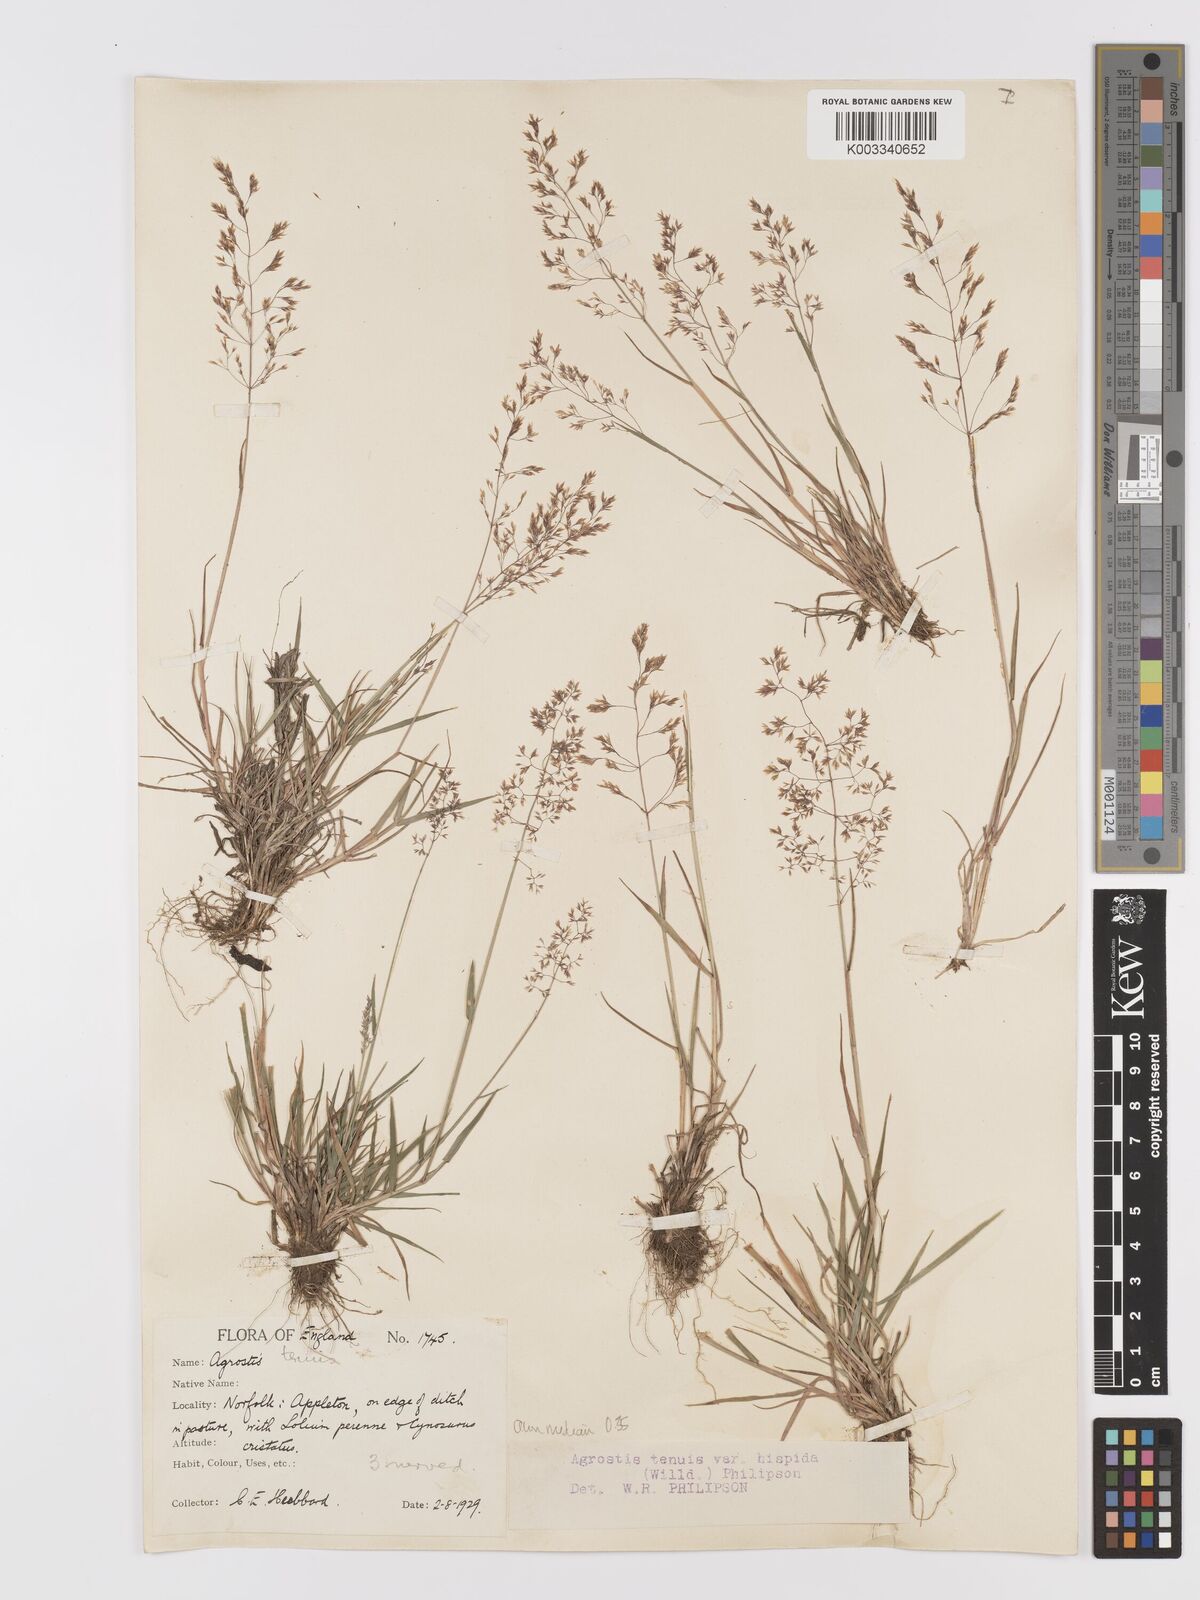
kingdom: Plantae
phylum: Tracheophyta
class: Liliopsida
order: Poales
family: Poaceae
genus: Agrostis
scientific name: Agrostis capillaris
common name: Colonial bentgrass
